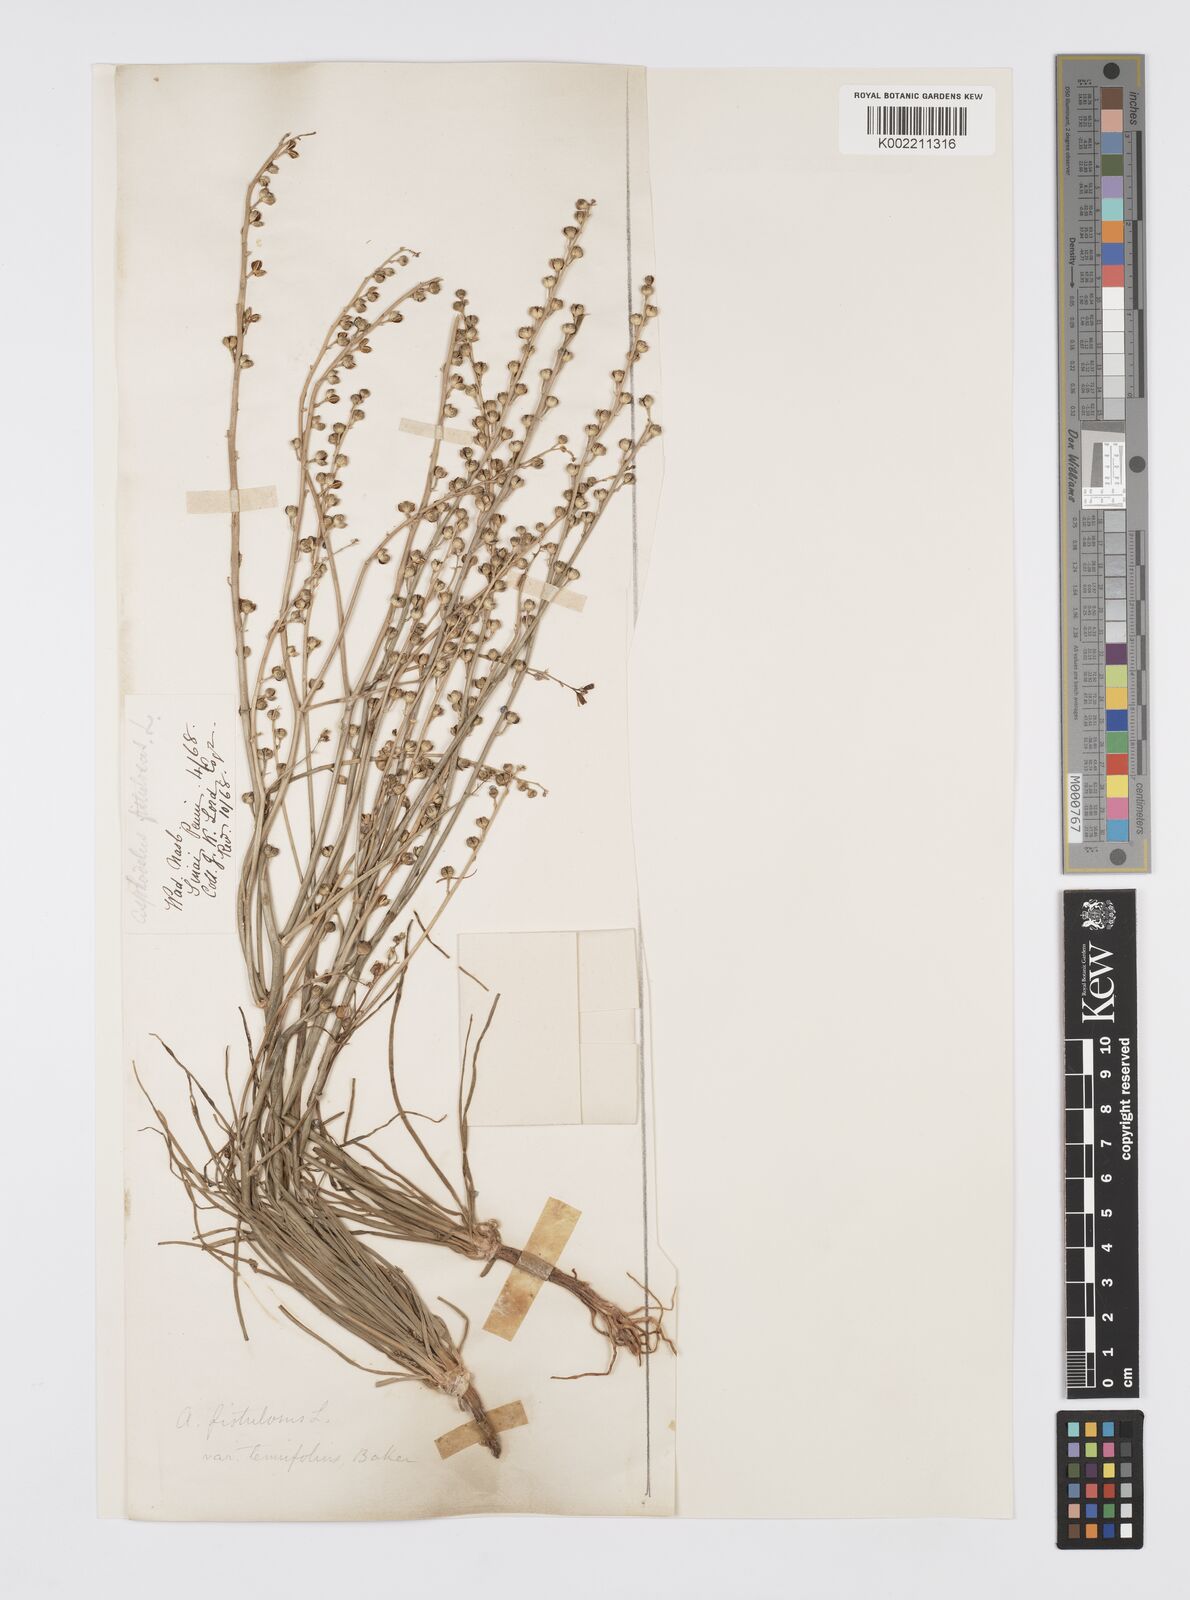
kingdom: Plantae
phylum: Tracheophyta
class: Liliopsida
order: Asparagales
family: Asphodelaceae
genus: Asphodeline
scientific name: Asphodeline tenuior
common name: Thin asphodeline
